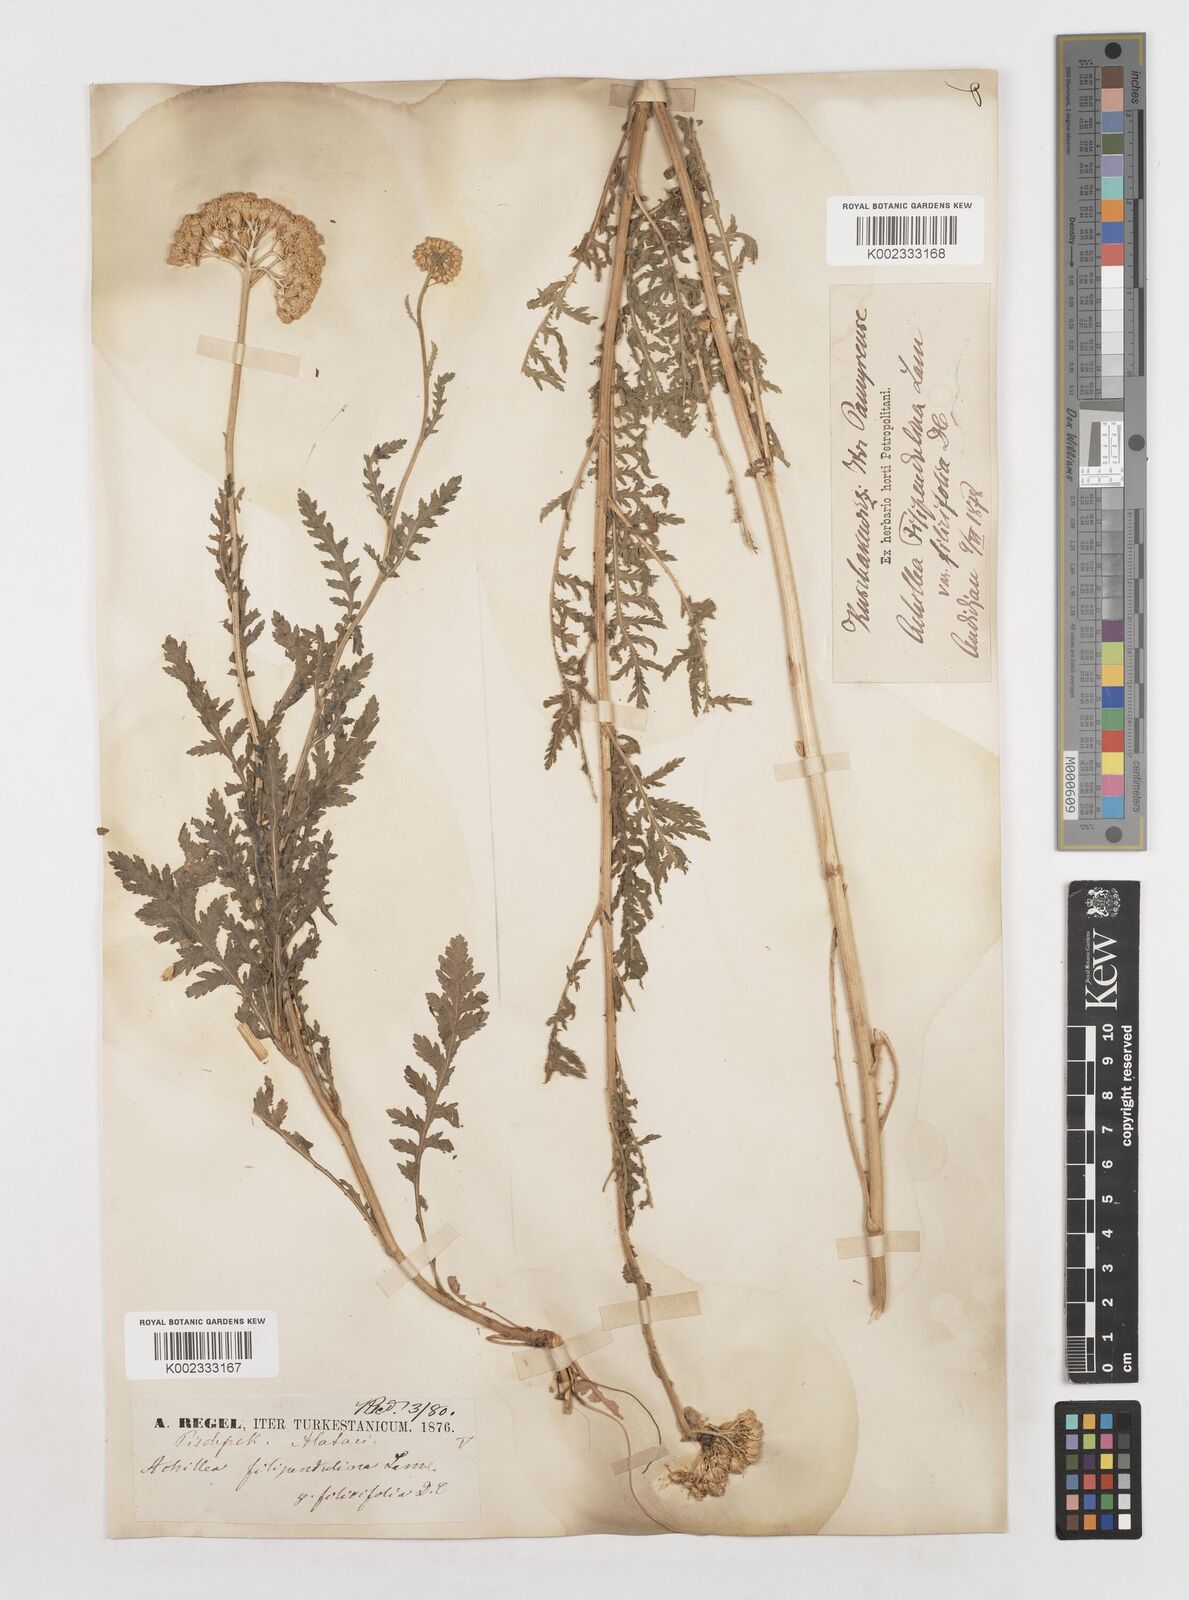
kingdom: Plantae
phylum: Tracheophyta
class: Magnoliopsida
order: Asterales
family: Asteraceae
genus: Achillea
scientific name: Achillea filipendulina
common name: Fernleaf yarrow
